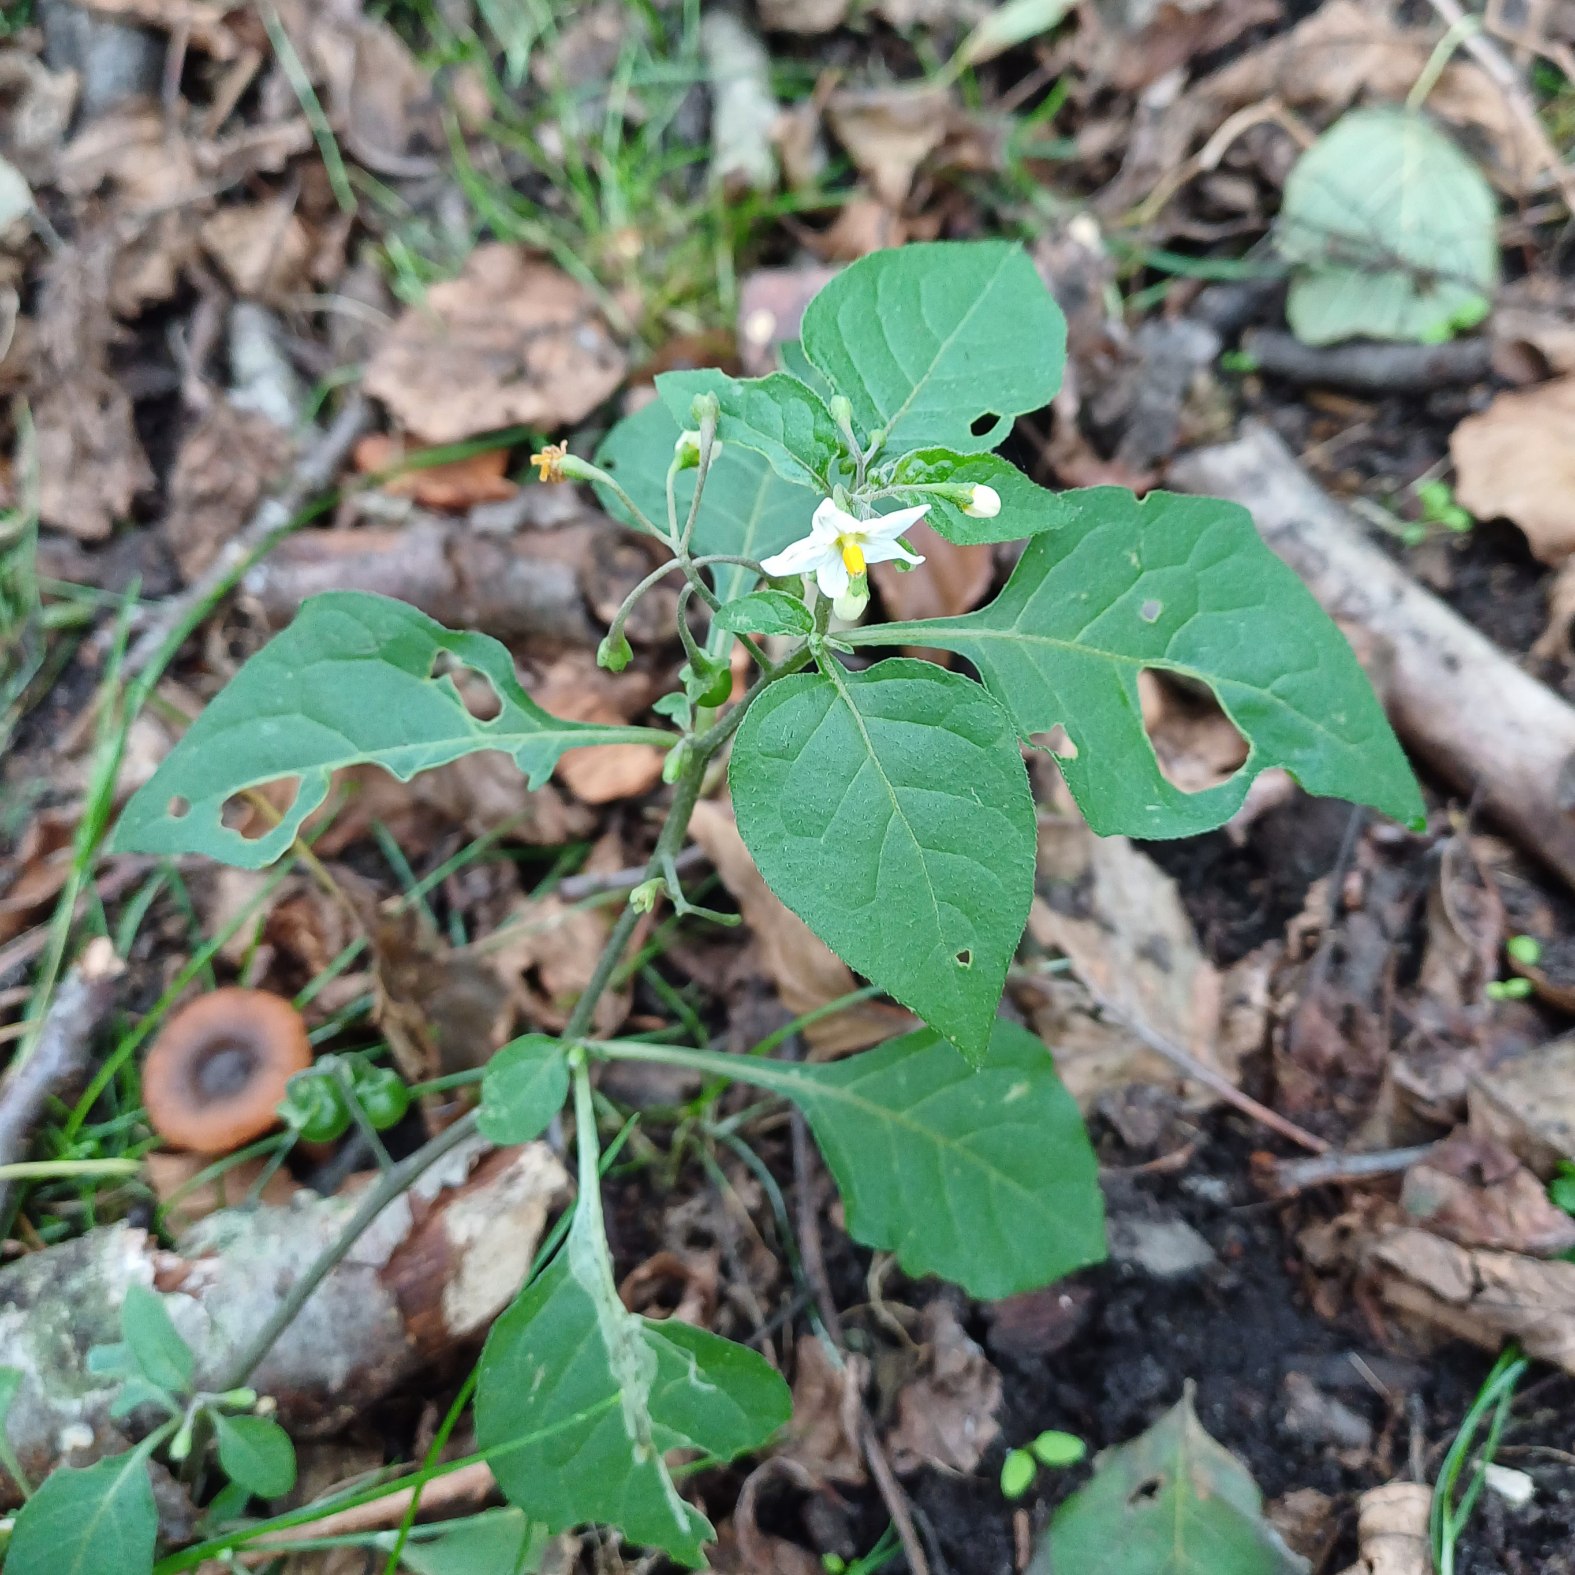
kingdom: Plantae
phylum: Tracheophyta
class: Magnoliopsida
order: Solanales
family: Solanaceae
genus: Solanum
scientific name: Solanum nigrum
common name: Sort natskygge (underart)
